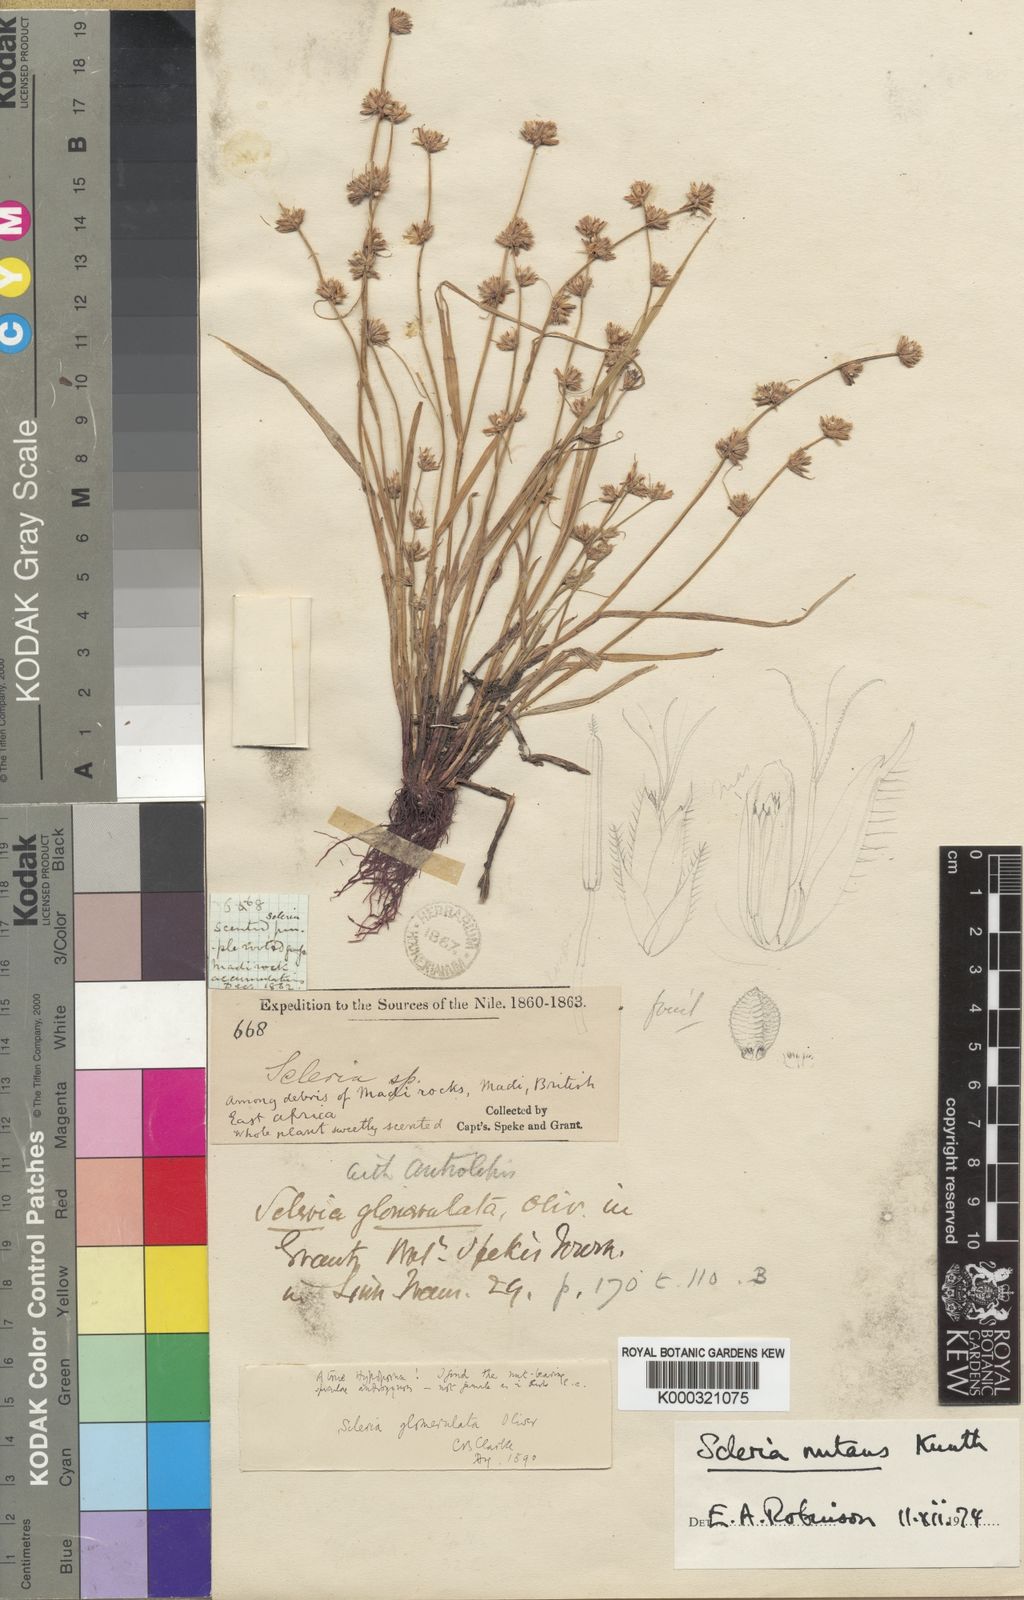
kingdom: Plantae
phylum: Tracheophyta
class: Liliopsida
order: Poales
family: Cyperaceae
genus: Scleria
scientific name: Scleria
